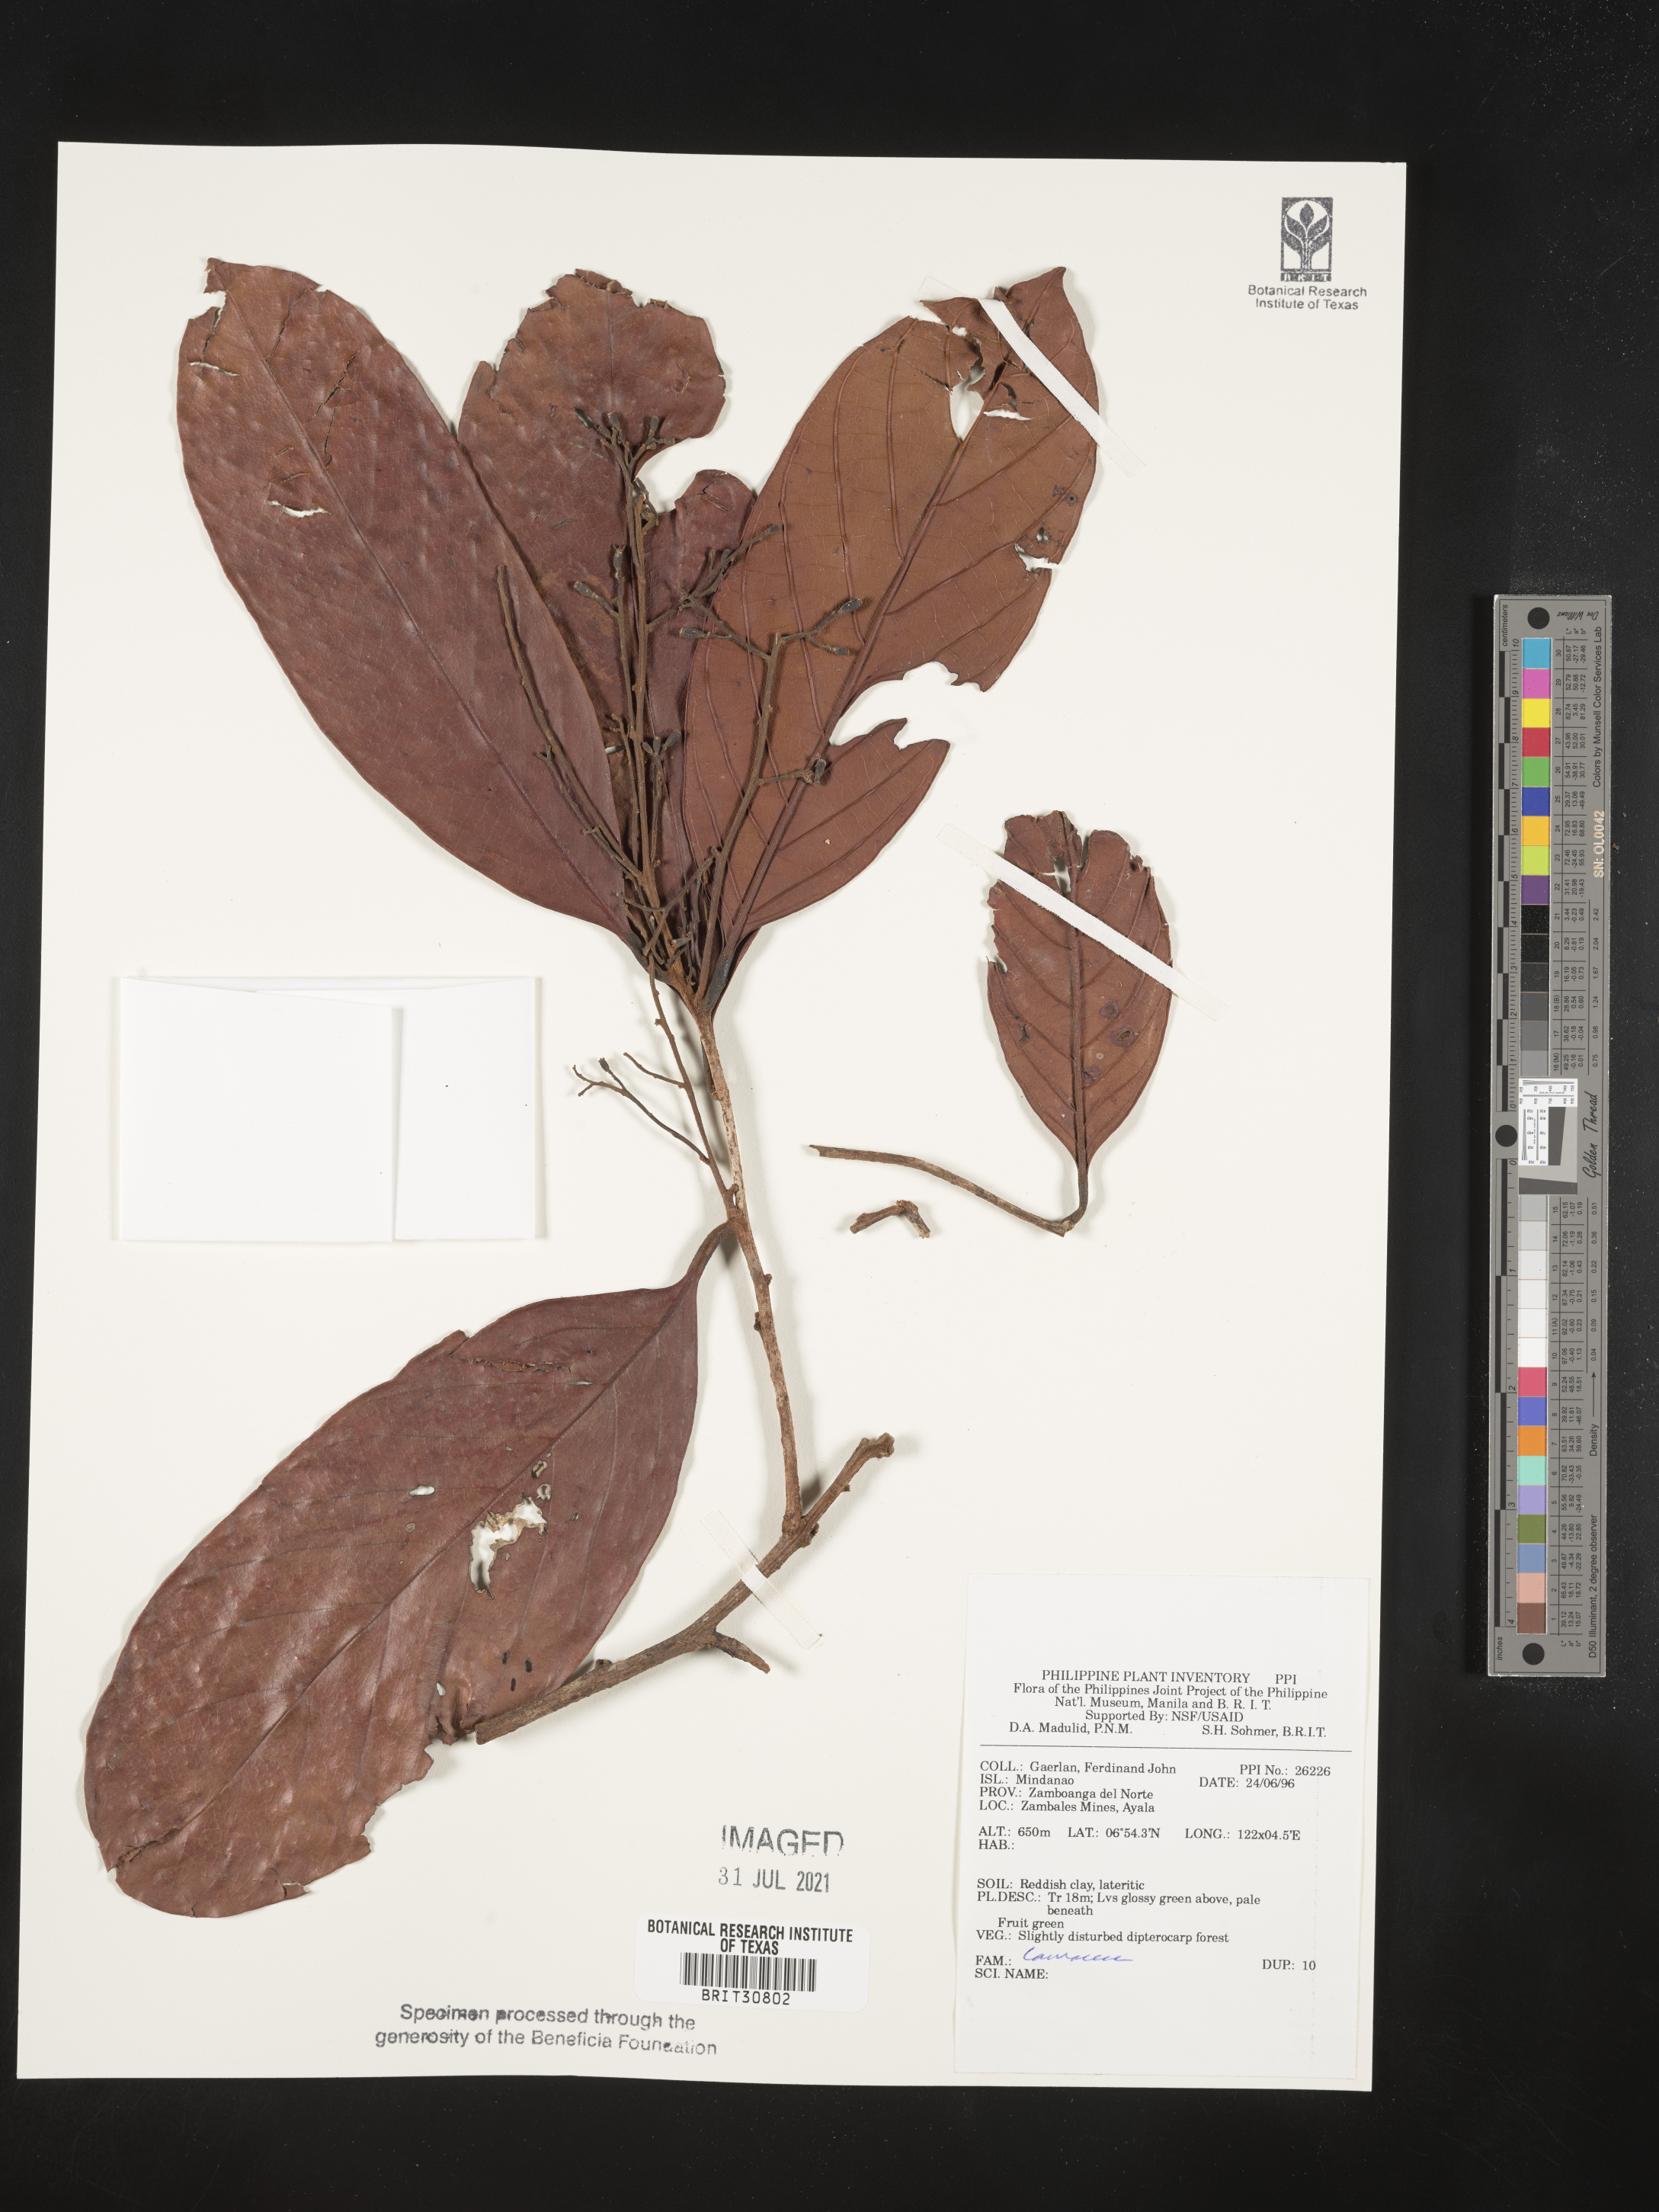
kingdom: Plantae
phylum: Tracheophyta
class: Magnoliopsida
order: Laurales
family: Lauraceae
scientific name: Lauraceae
